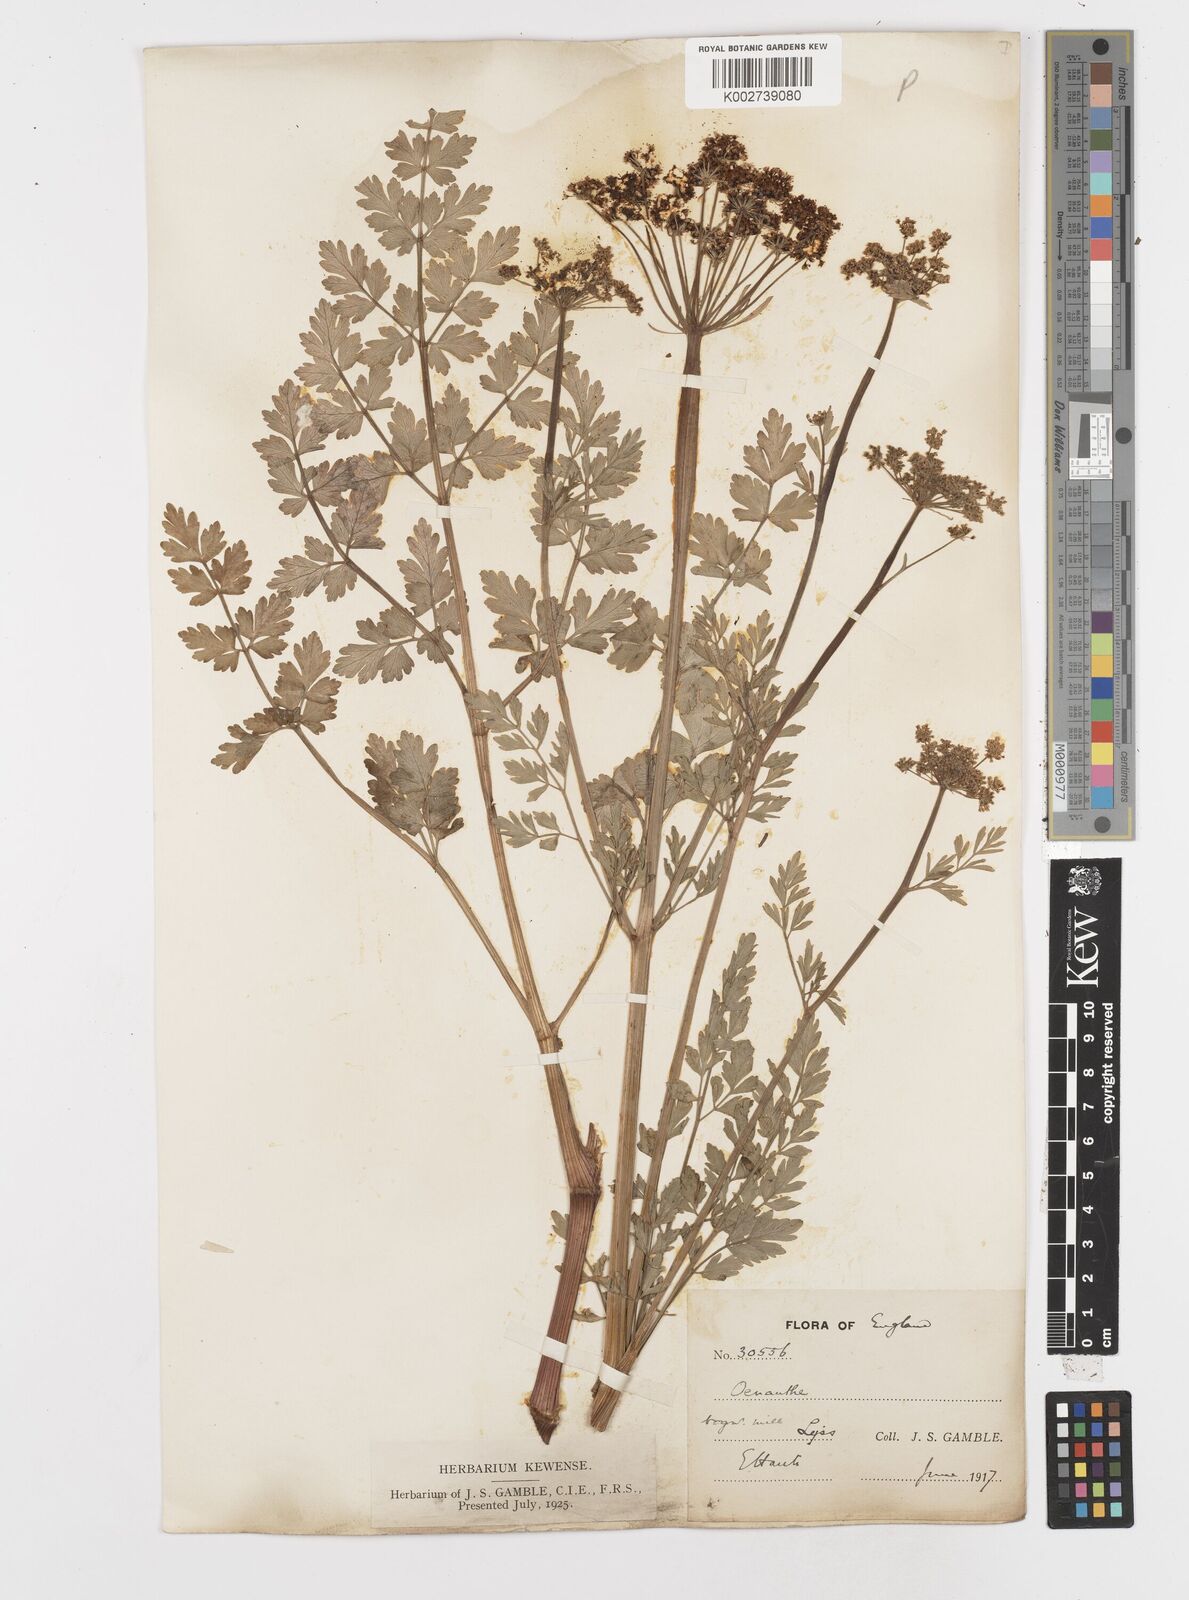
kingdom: Plantae
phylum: Tracheophyta
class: Magnoliopsida
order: Apiales
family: Apiaceae
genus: Oenanthe
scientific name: Oenanthe crocata
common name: Hemlock water-dropwort
